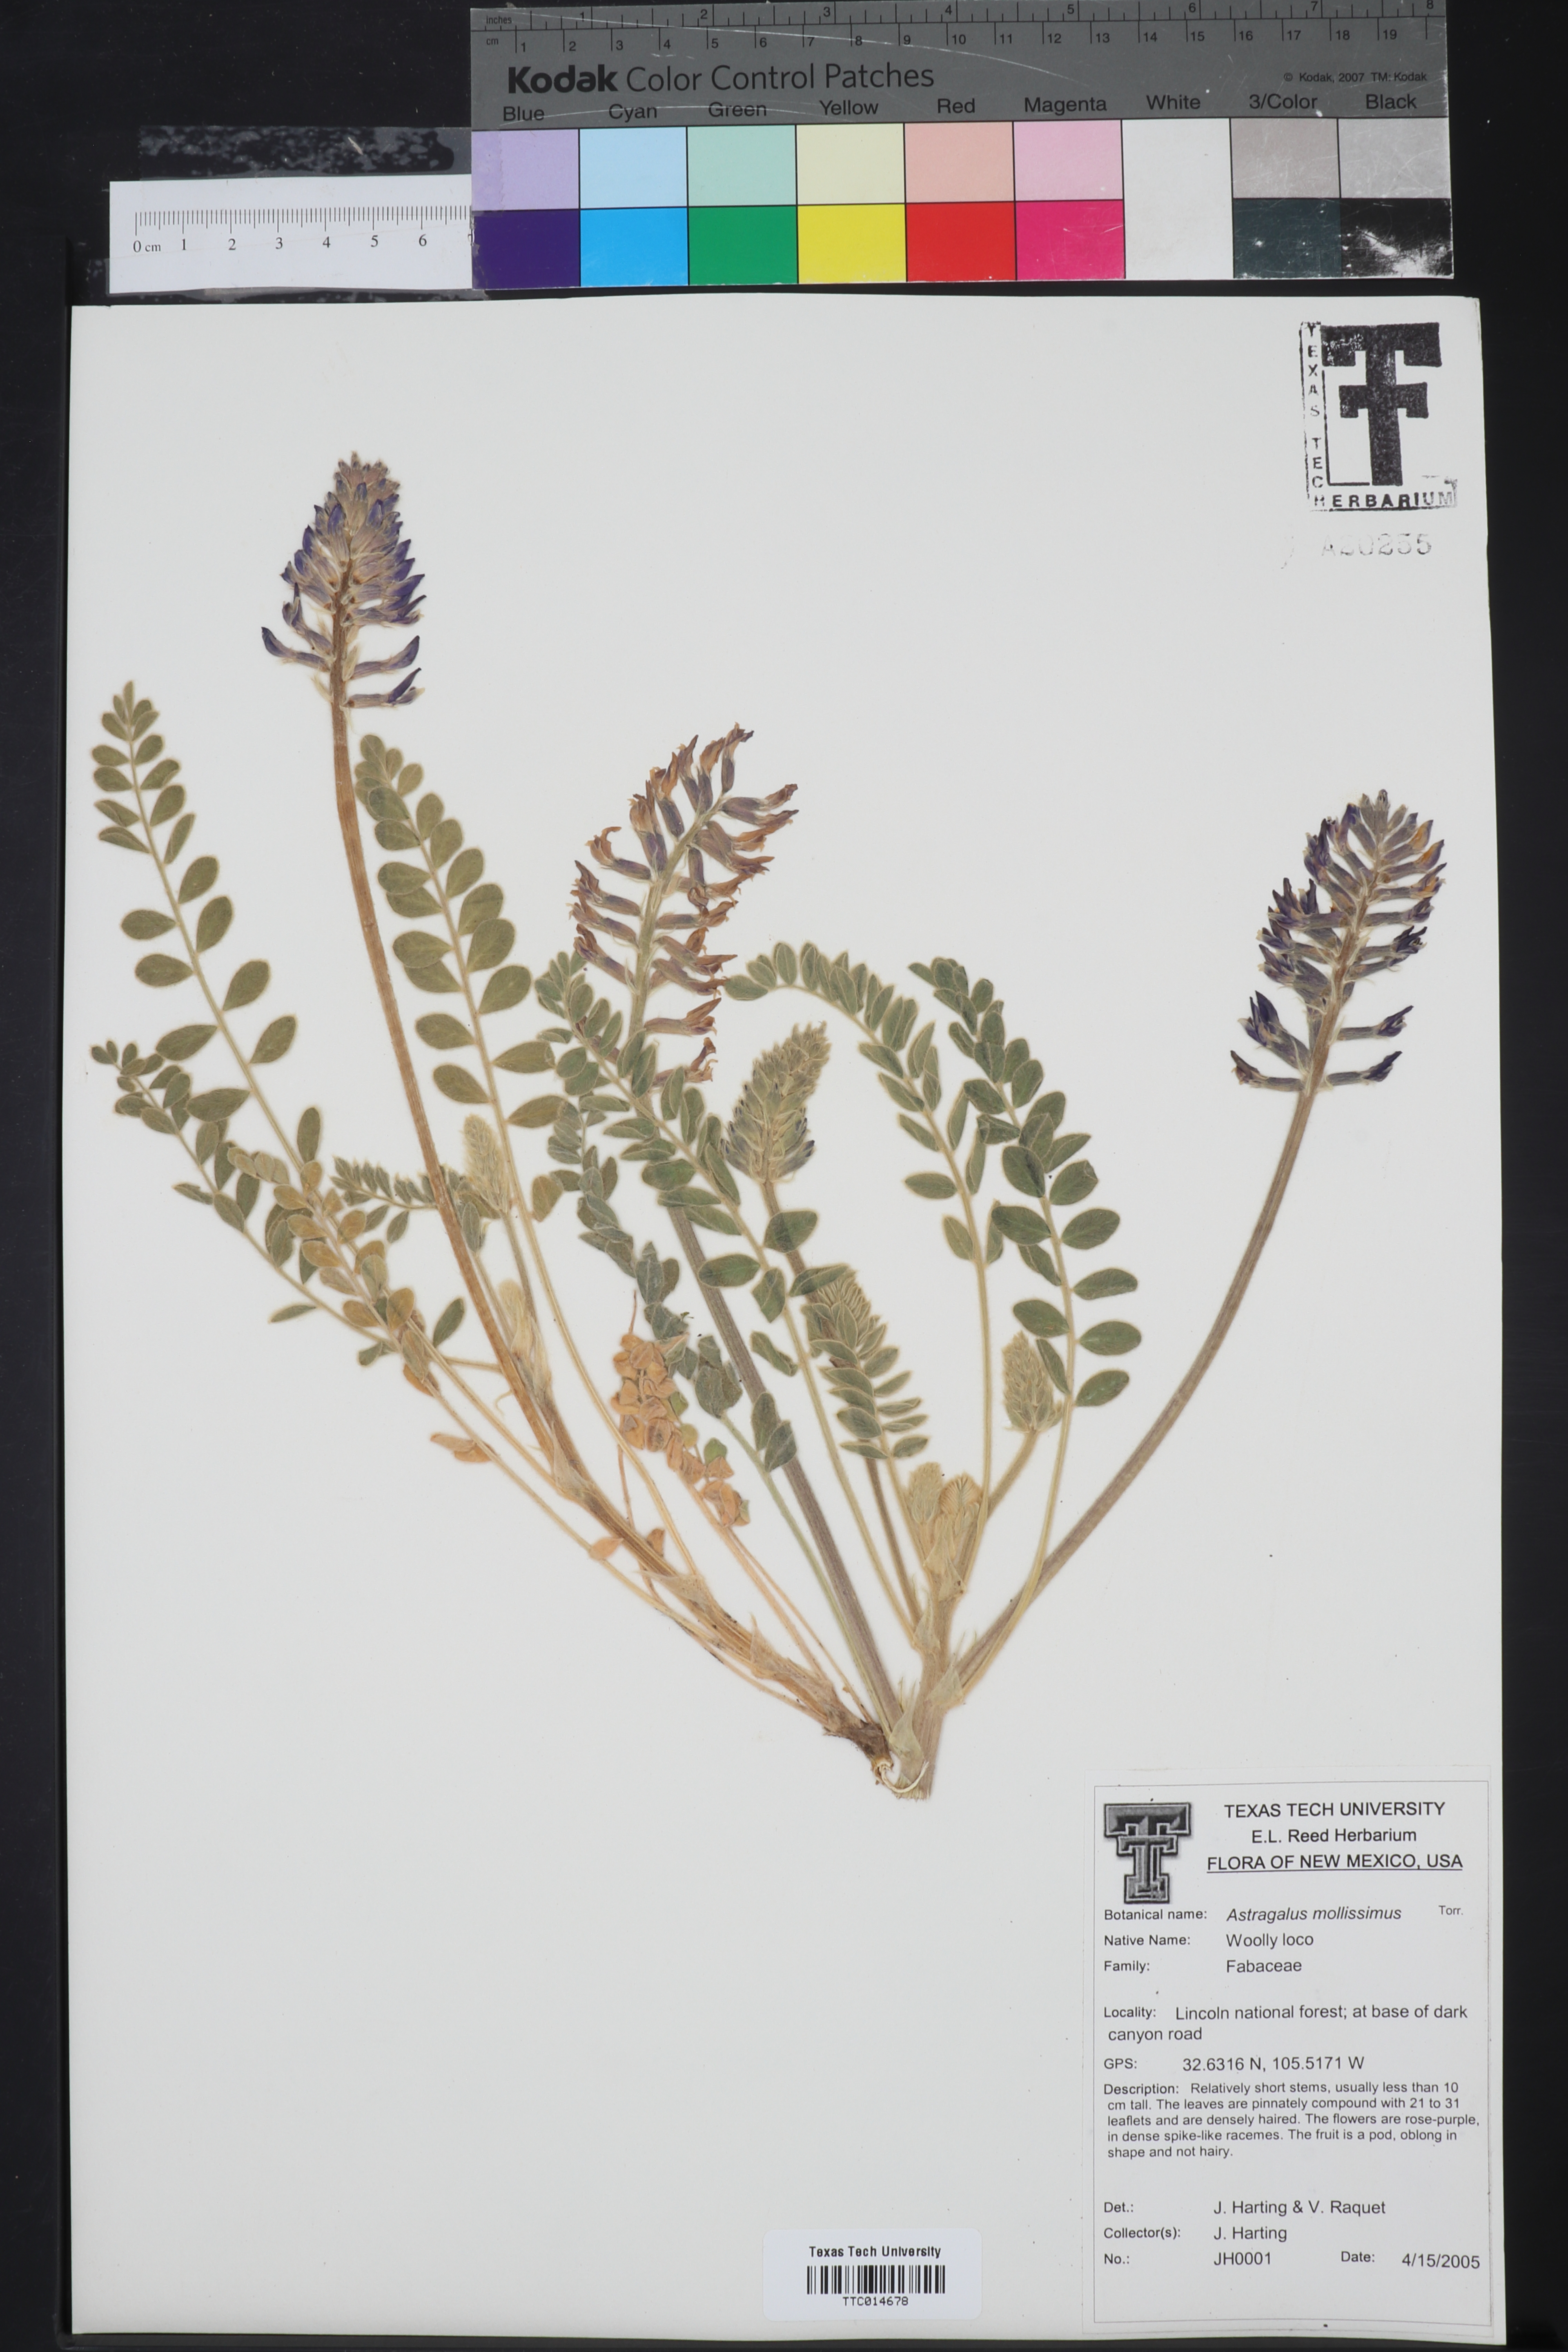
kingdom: Plantae
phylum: Tracheophyta
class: Magnoliopsida
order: Fabales
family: Fabaceae
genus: Astragalus
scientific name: Astragalus mollissimus
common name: Woolly locoweed
